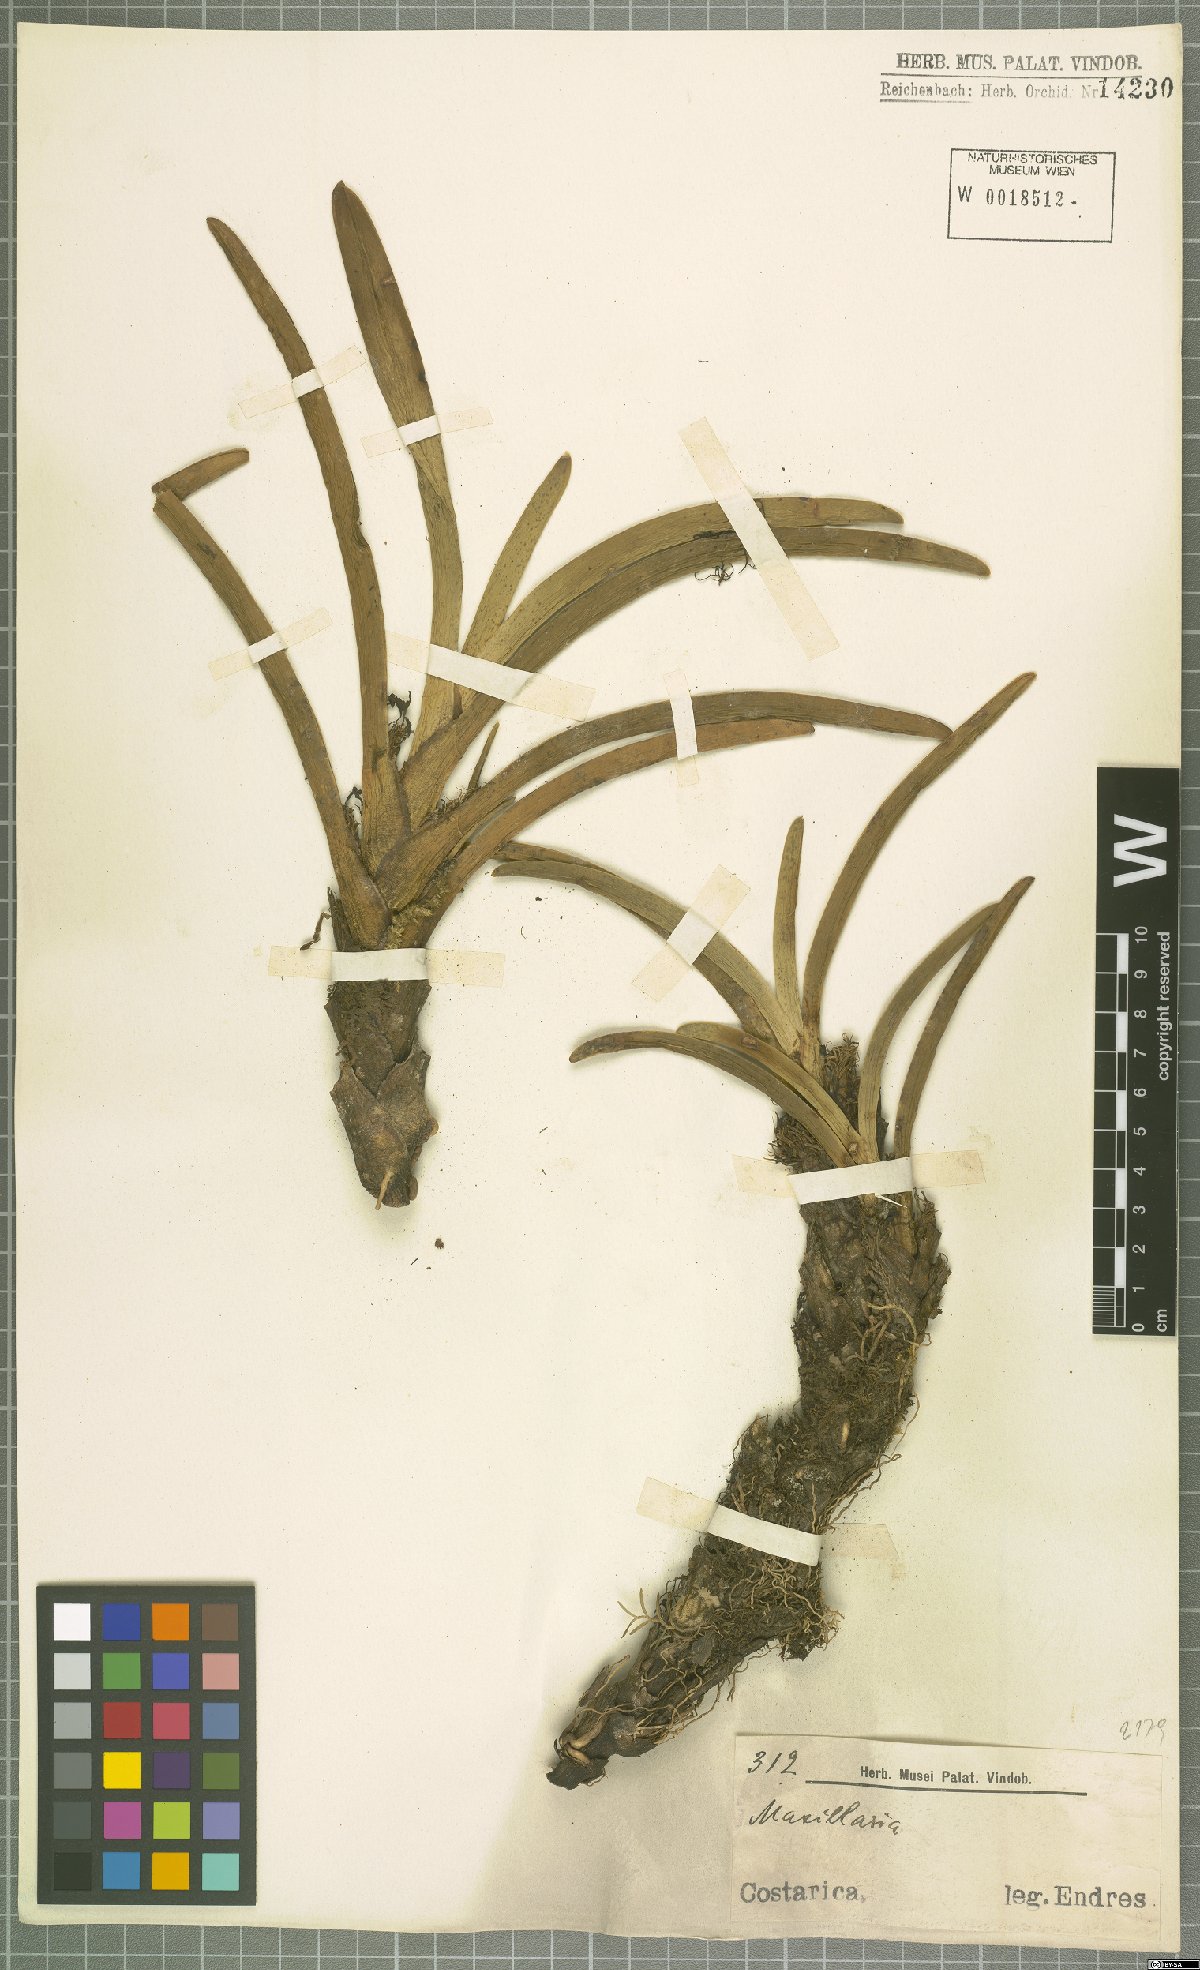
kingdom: Plantae
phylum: Tracheophyta
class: Liliopsida
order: Asparagales
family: Orchidaceae
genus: Maxillaria
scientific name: Maxillaria
